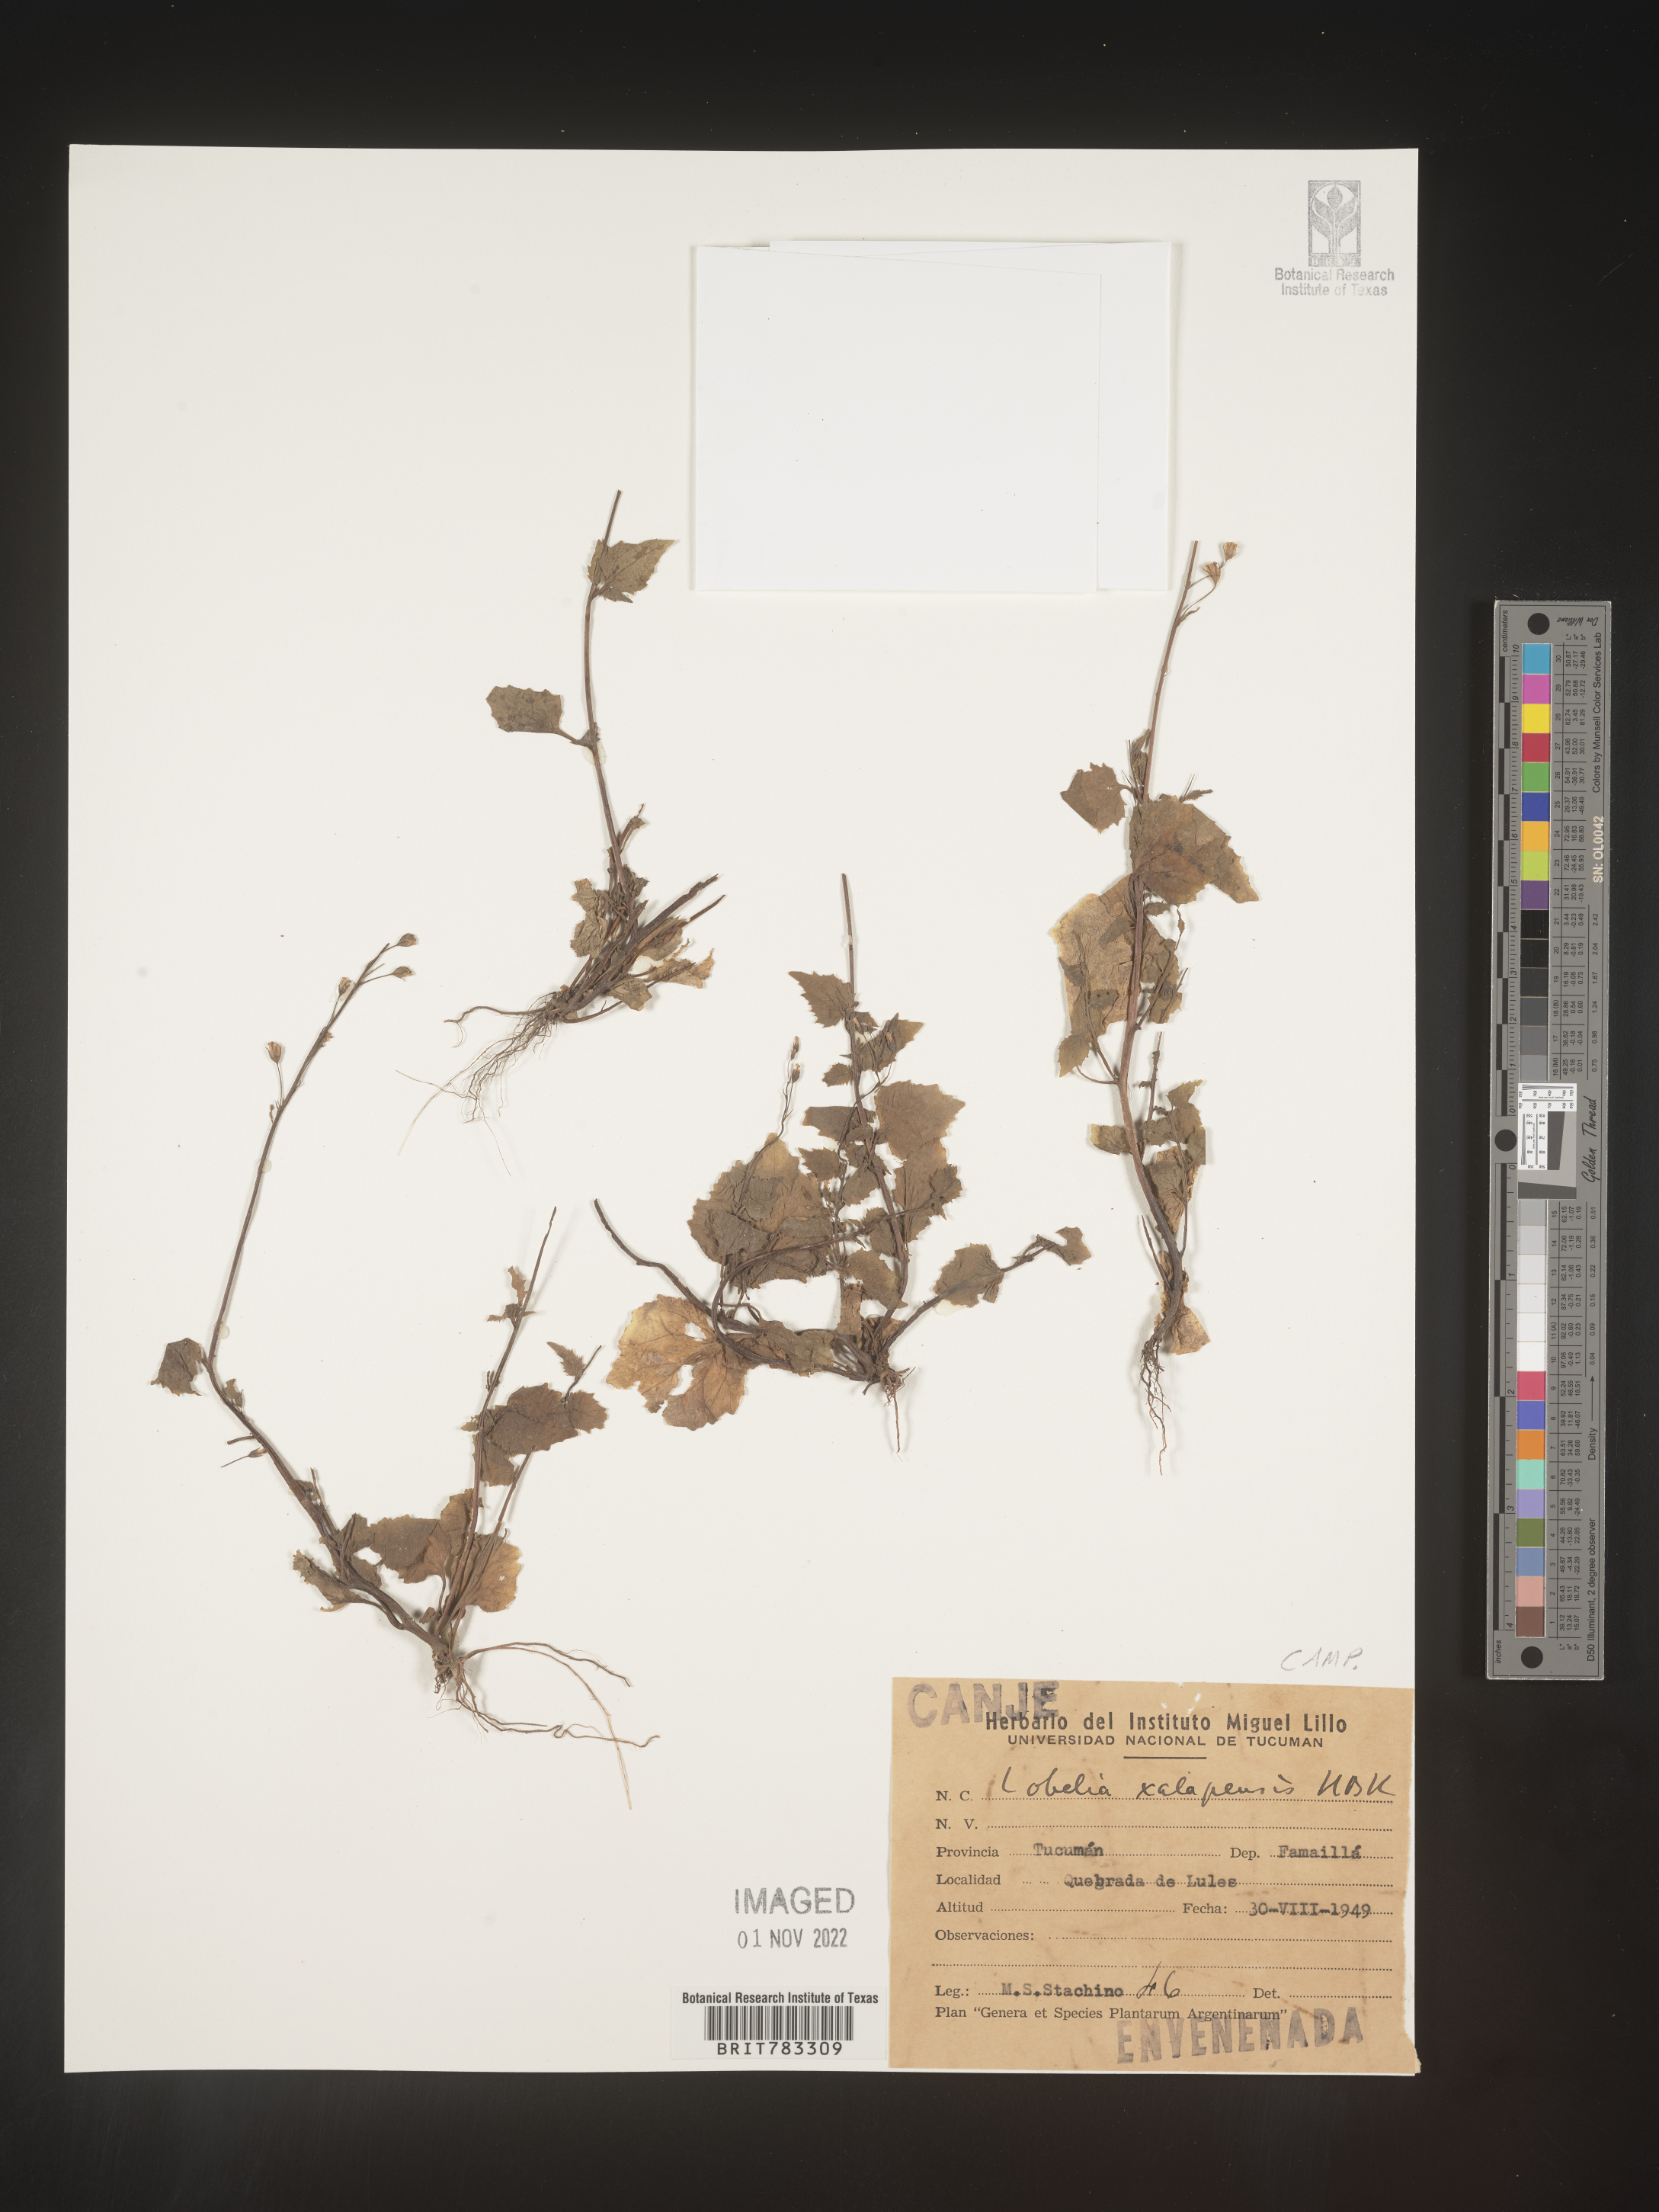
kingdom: Plantae
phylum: Tracheophyta
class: Magnoliopsida
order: Asterales
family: Campanulaceae
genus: Lobelia
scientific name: Lobelia
